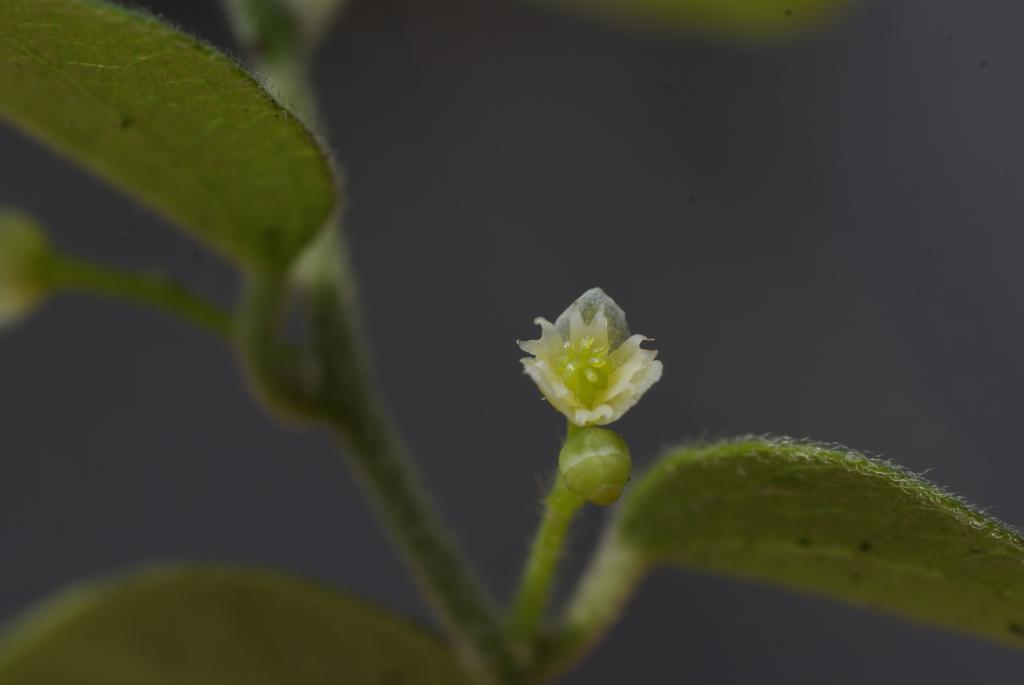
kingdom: Plantae
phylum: Tracheophyta
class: Magnoliopsida
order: Ranunculales
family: Menispermaceae
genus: Cocculus
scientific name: Cocculus orbiculatus
